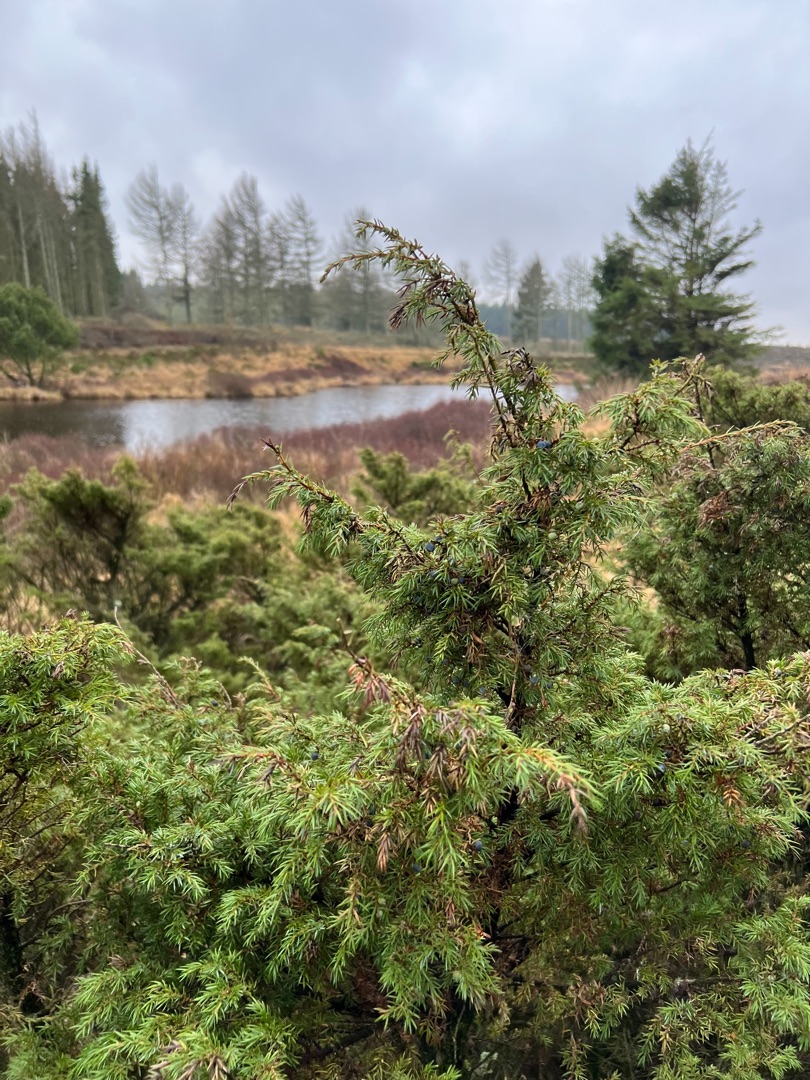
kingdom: Plantae
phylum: Tracheophyta
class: Pinopsida
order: Pinales
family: Cupressaceae
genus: Juniperus
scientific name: Juniperus communis
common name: Almindelig ene
